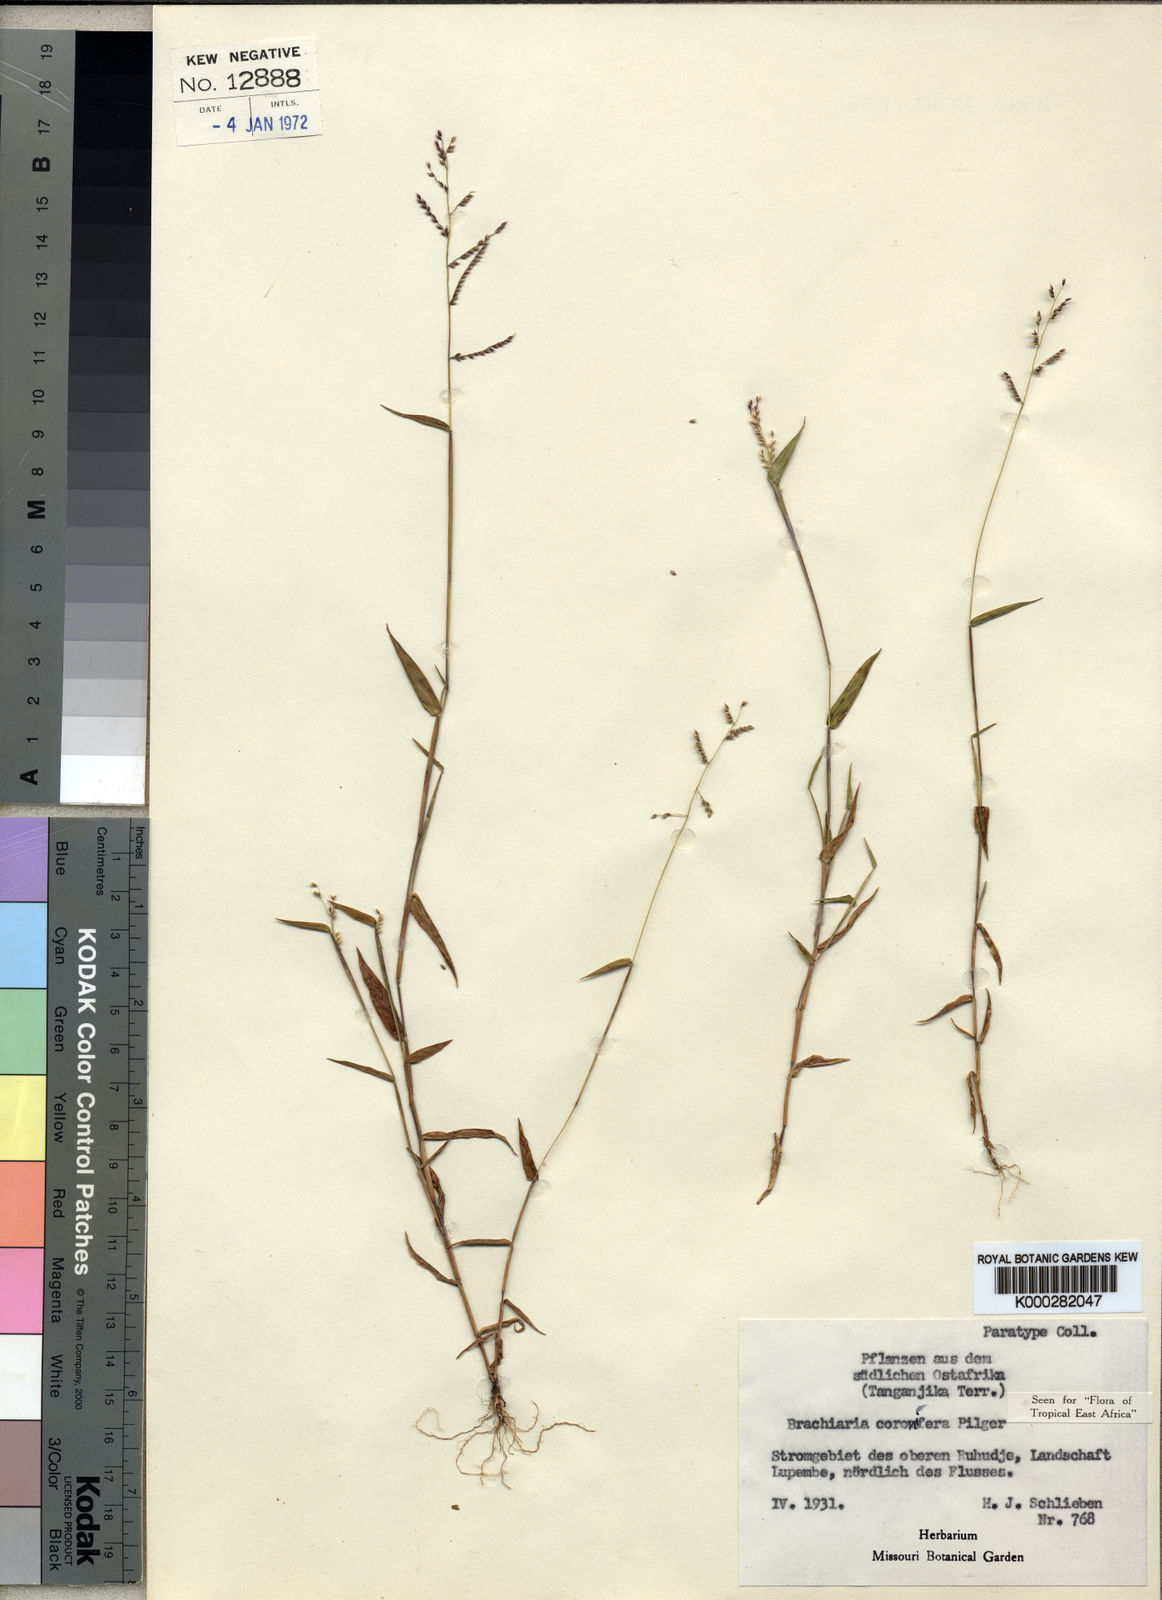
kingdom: Plantae
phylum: Tracheophyta
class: Liliopsida
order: Poales
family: Poaceae
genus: Urochloa
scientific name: Urochloa comata
